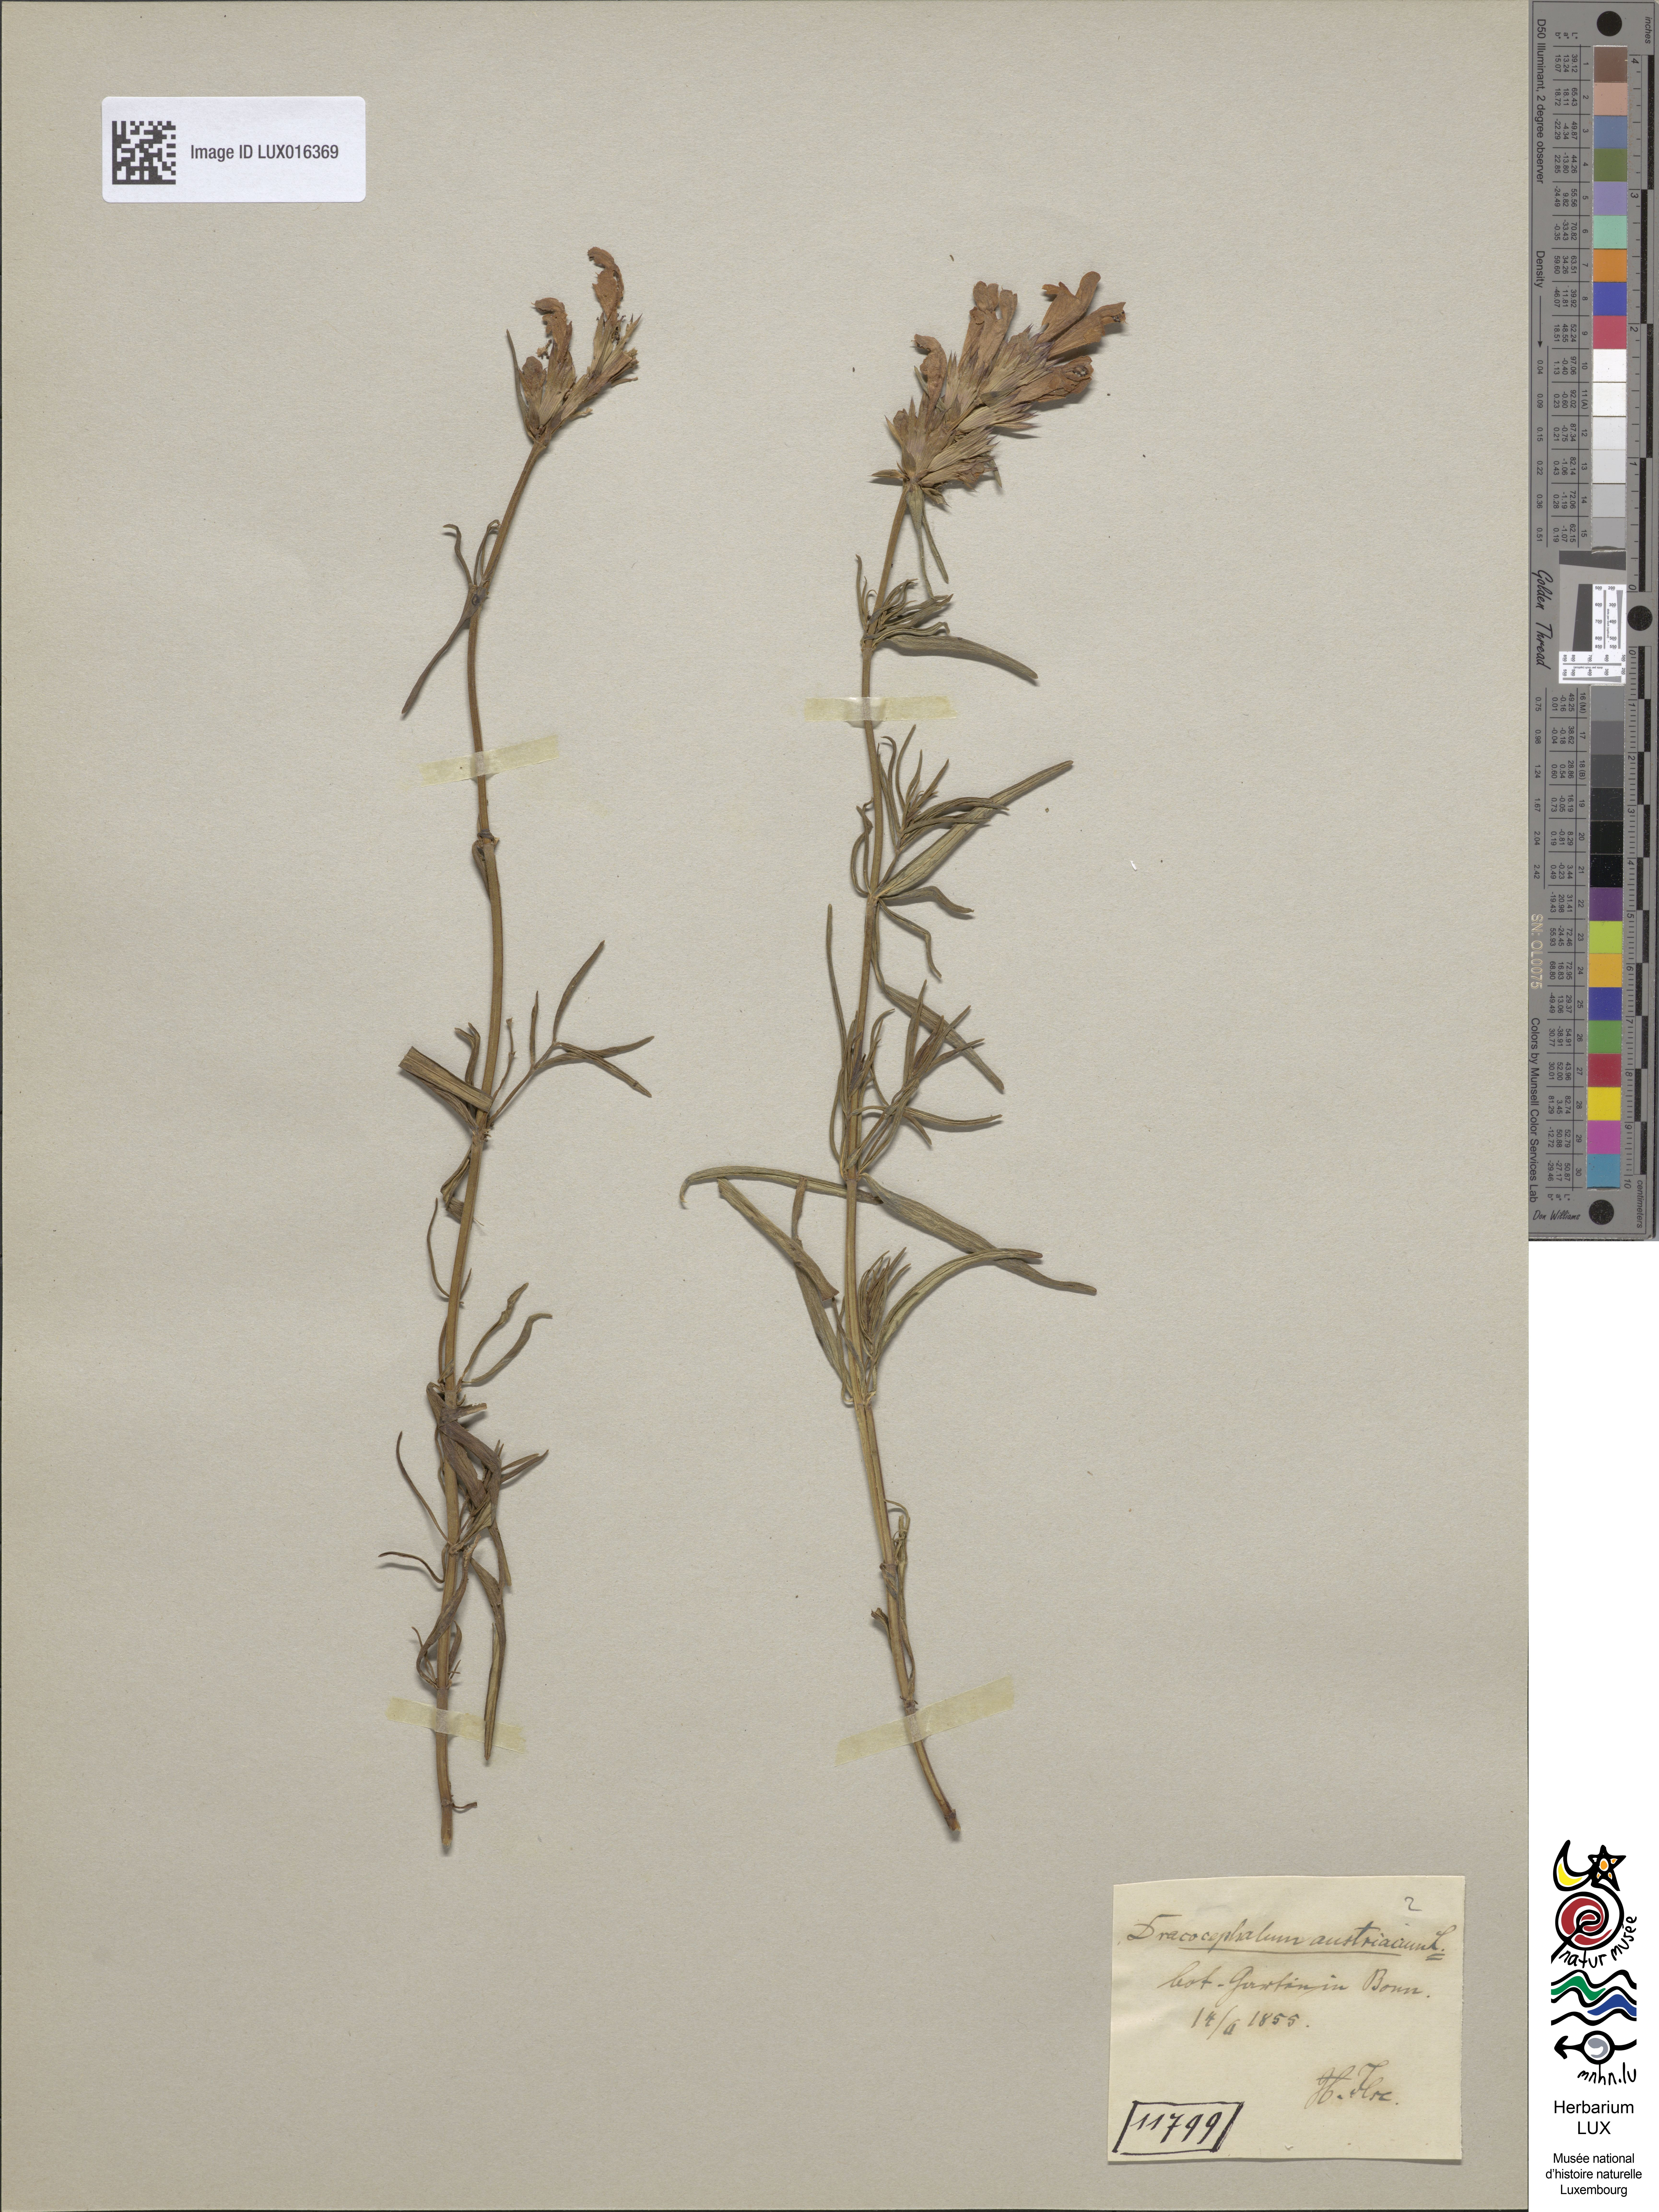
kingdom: Plantae
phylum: Tracheophyta
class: Magnoliopsida
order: Lamiales
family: Lamiaceae
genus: Dracocephalum
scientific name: Dracocephalum austriacum
